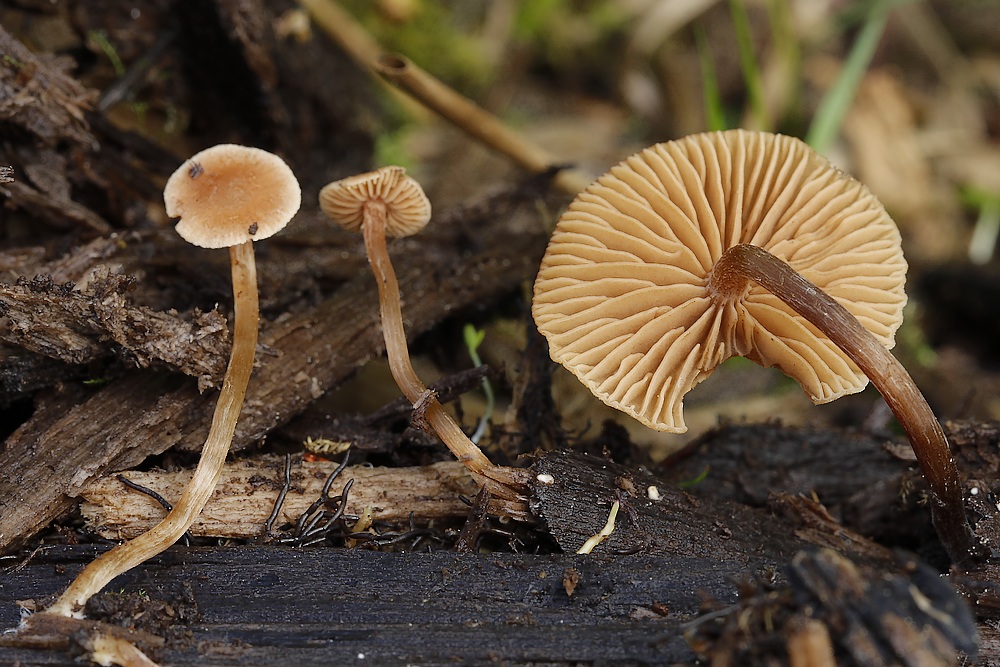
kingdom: Fungi
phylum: Basidiomycota
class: Agaricomycetes
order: Agaricales
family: Hymenogastraceae
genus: Naucoria
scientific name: Naucoria
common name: knaphat
